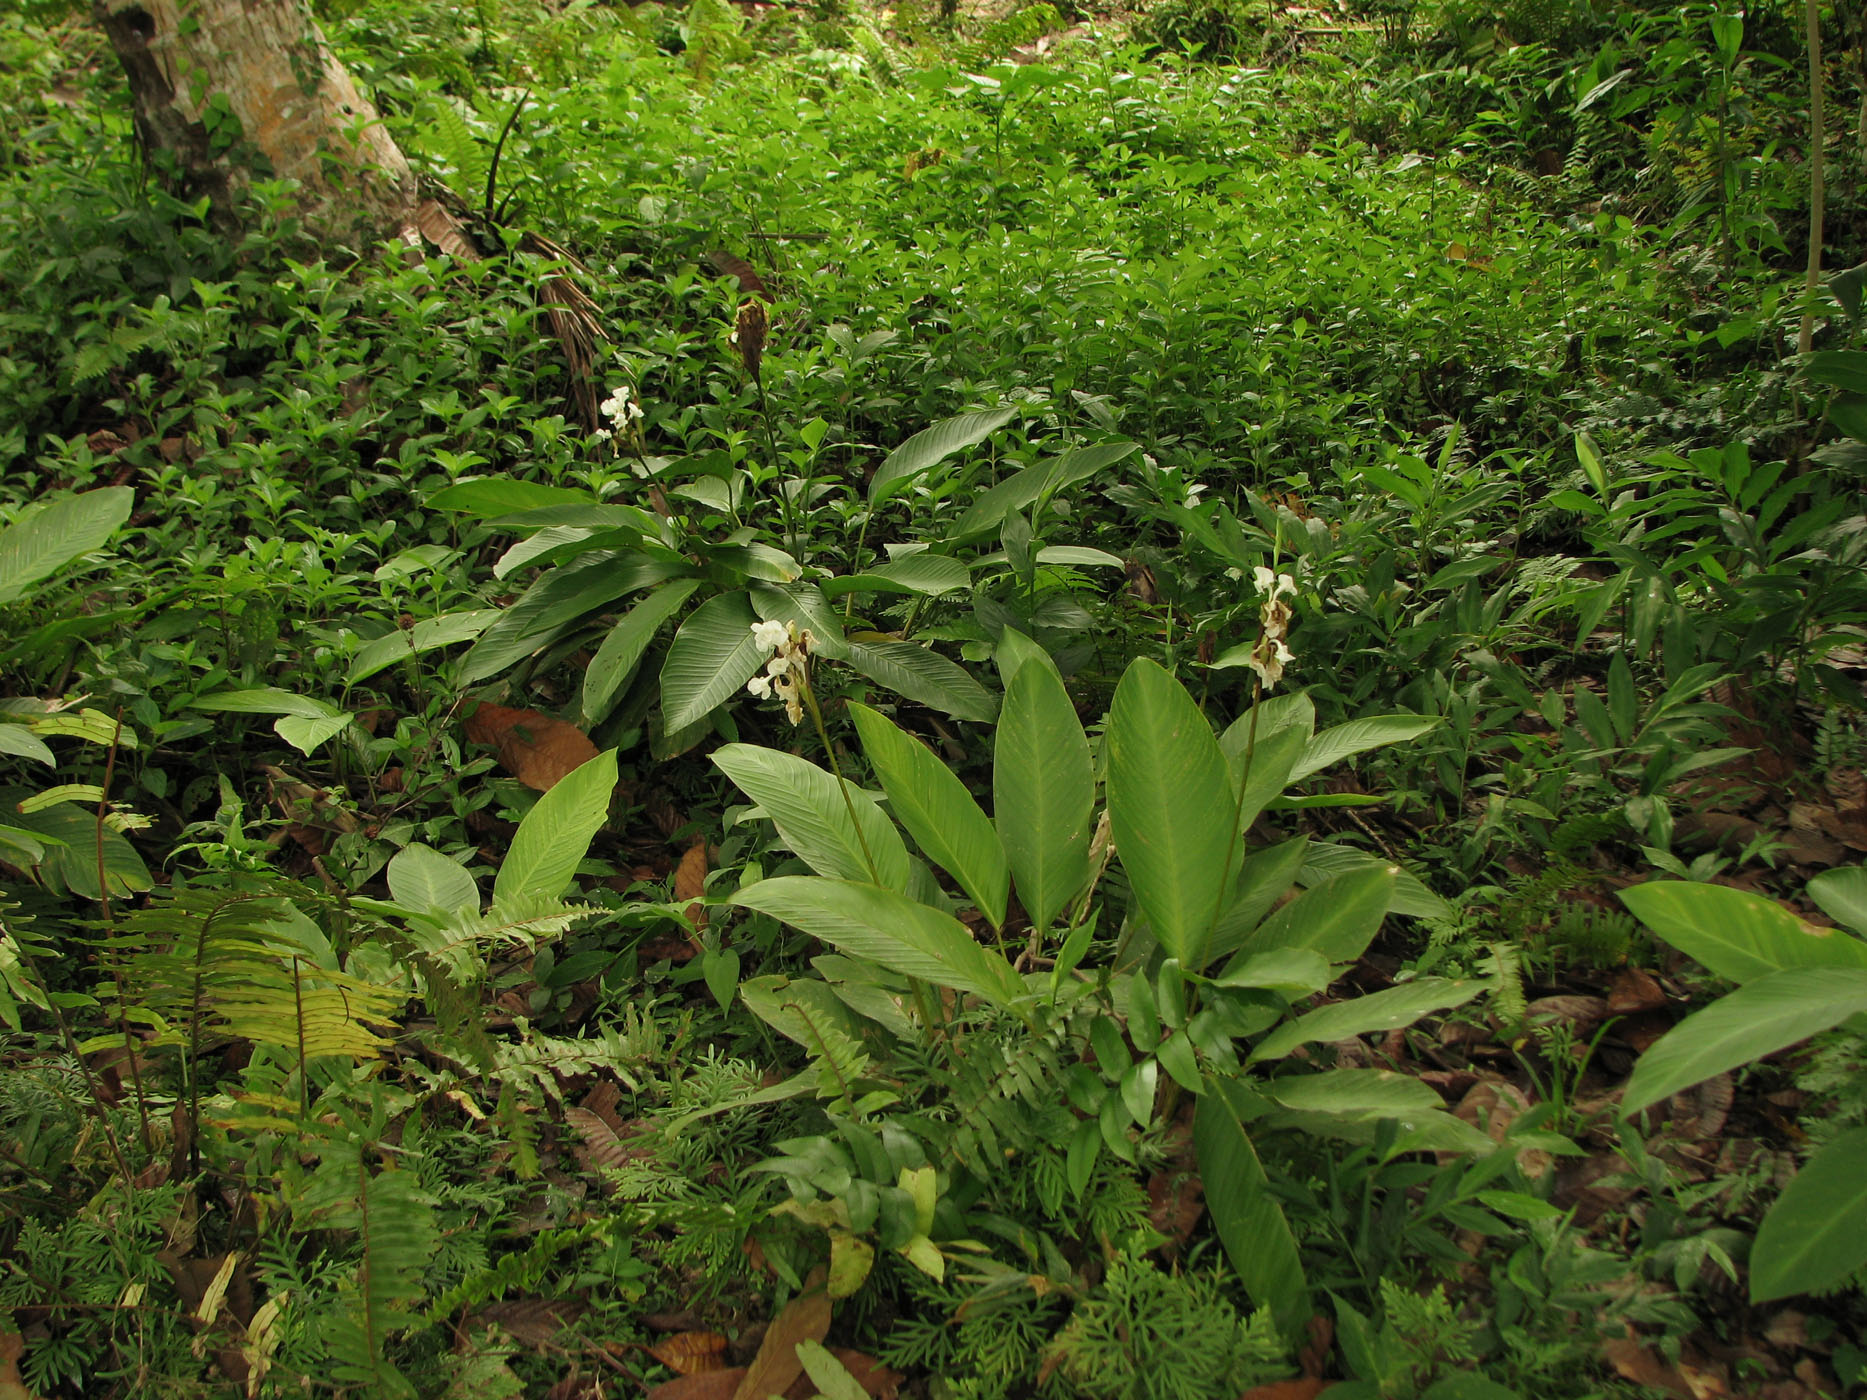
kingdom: Plantae
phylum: Tracheophyta
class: Liliopsida
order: Zingiberales
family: Marantaceae
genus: Phrynium
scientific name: Phrynium macrocephalum
